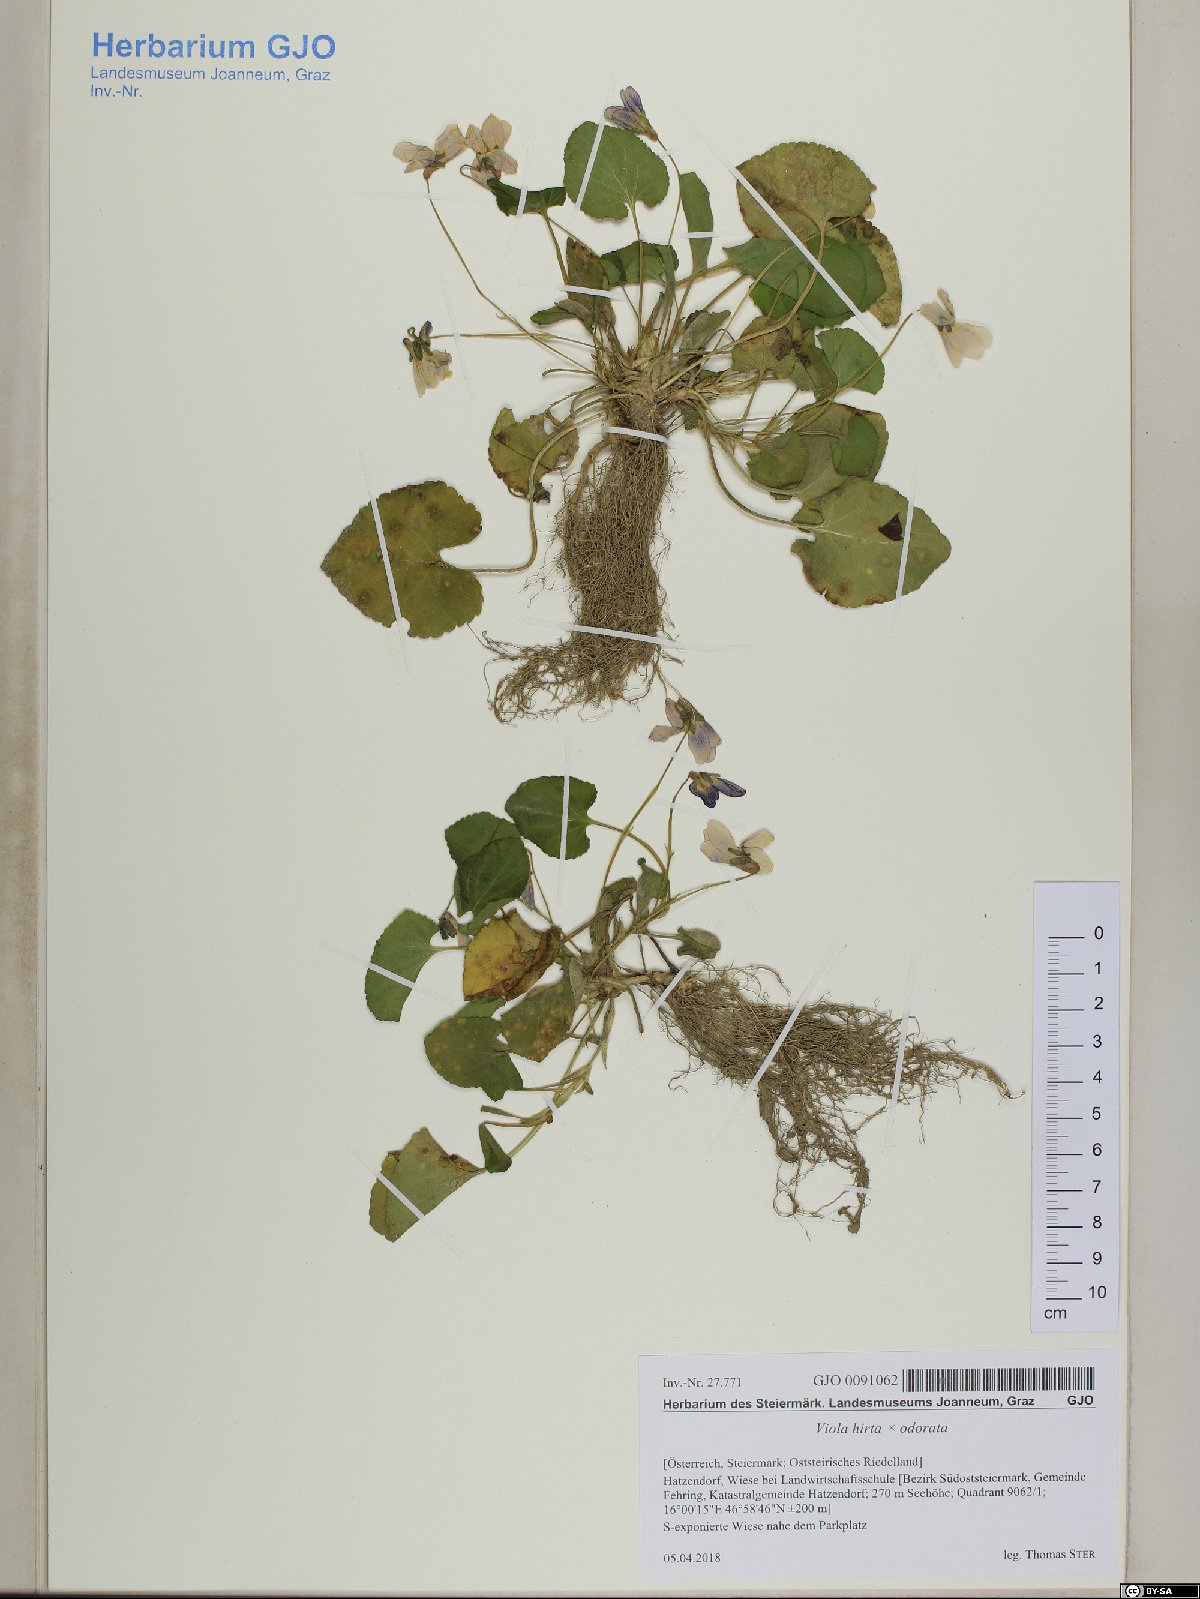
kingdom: Plantae
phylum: Tracheophyta
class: Magnoliopsida
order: Malpighiales
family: Violaceae
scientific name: Violaceae
